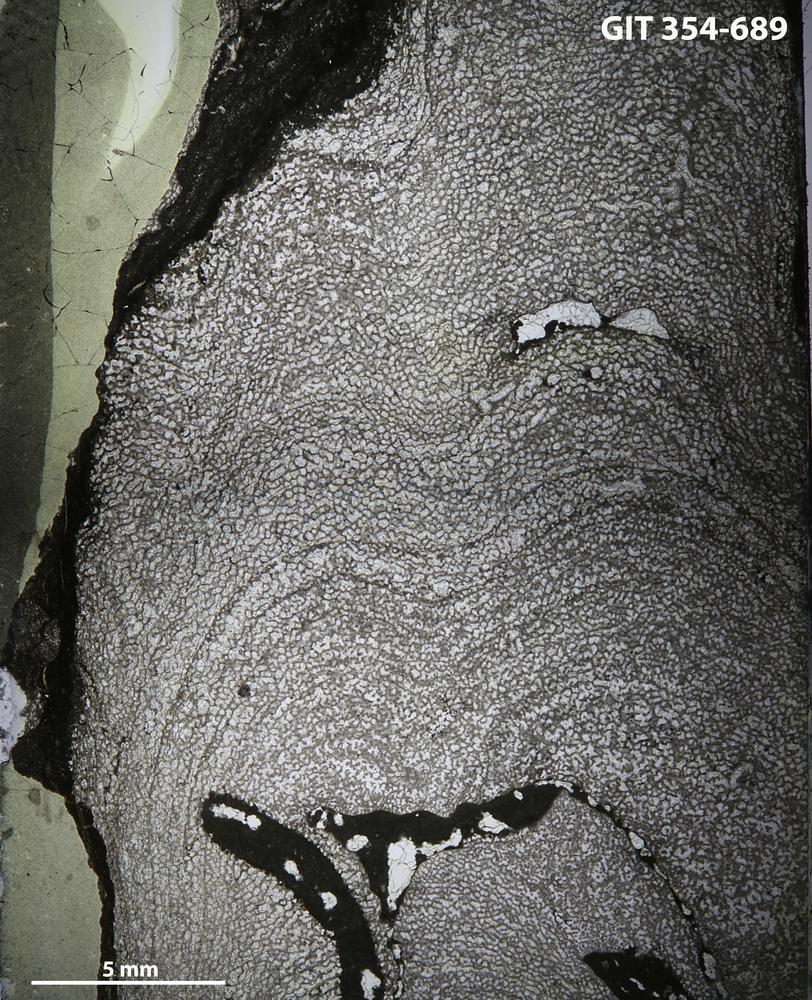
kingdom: Animalia
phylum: Porifera
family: Ecclimadictyidae
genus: Ecclimadictyon
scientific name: Ecclimadictyon
